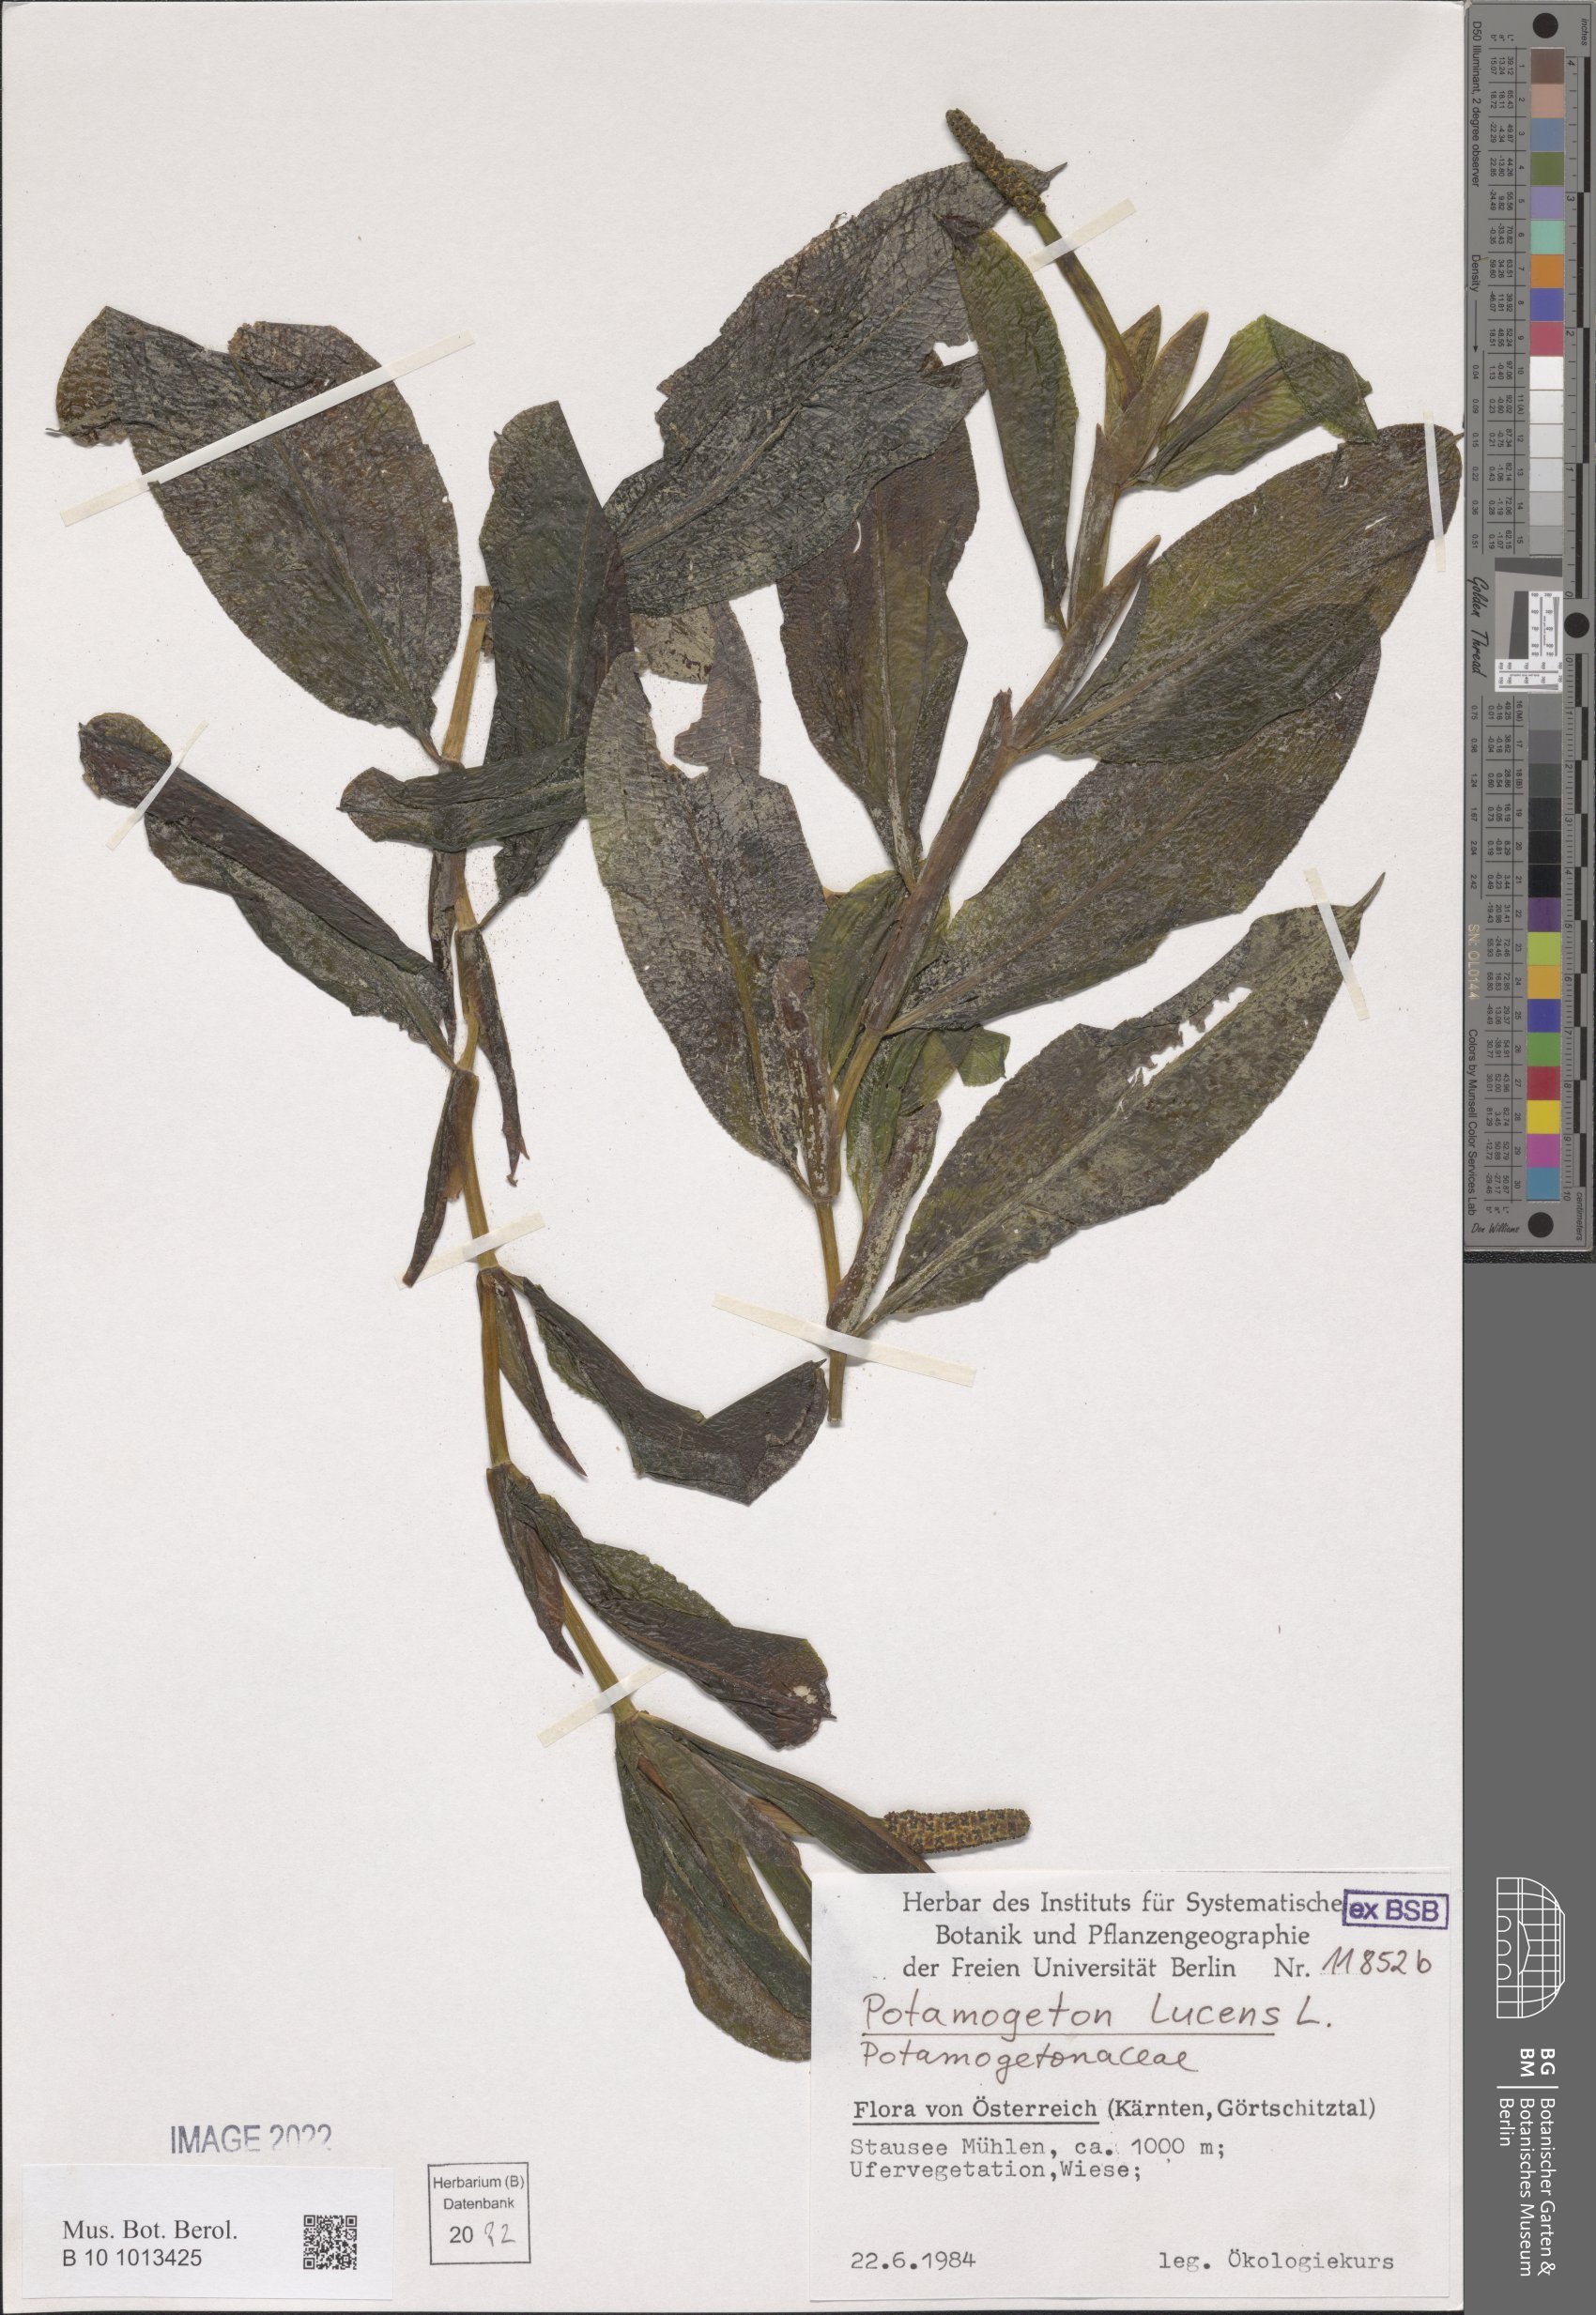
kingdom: Plantae
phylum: Tracheophyta
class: Liliopsida
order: Alismatales
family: Potamogetonaceae
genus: Potamogeton
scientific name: Potamogeton lucens
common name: Shining pondweed
